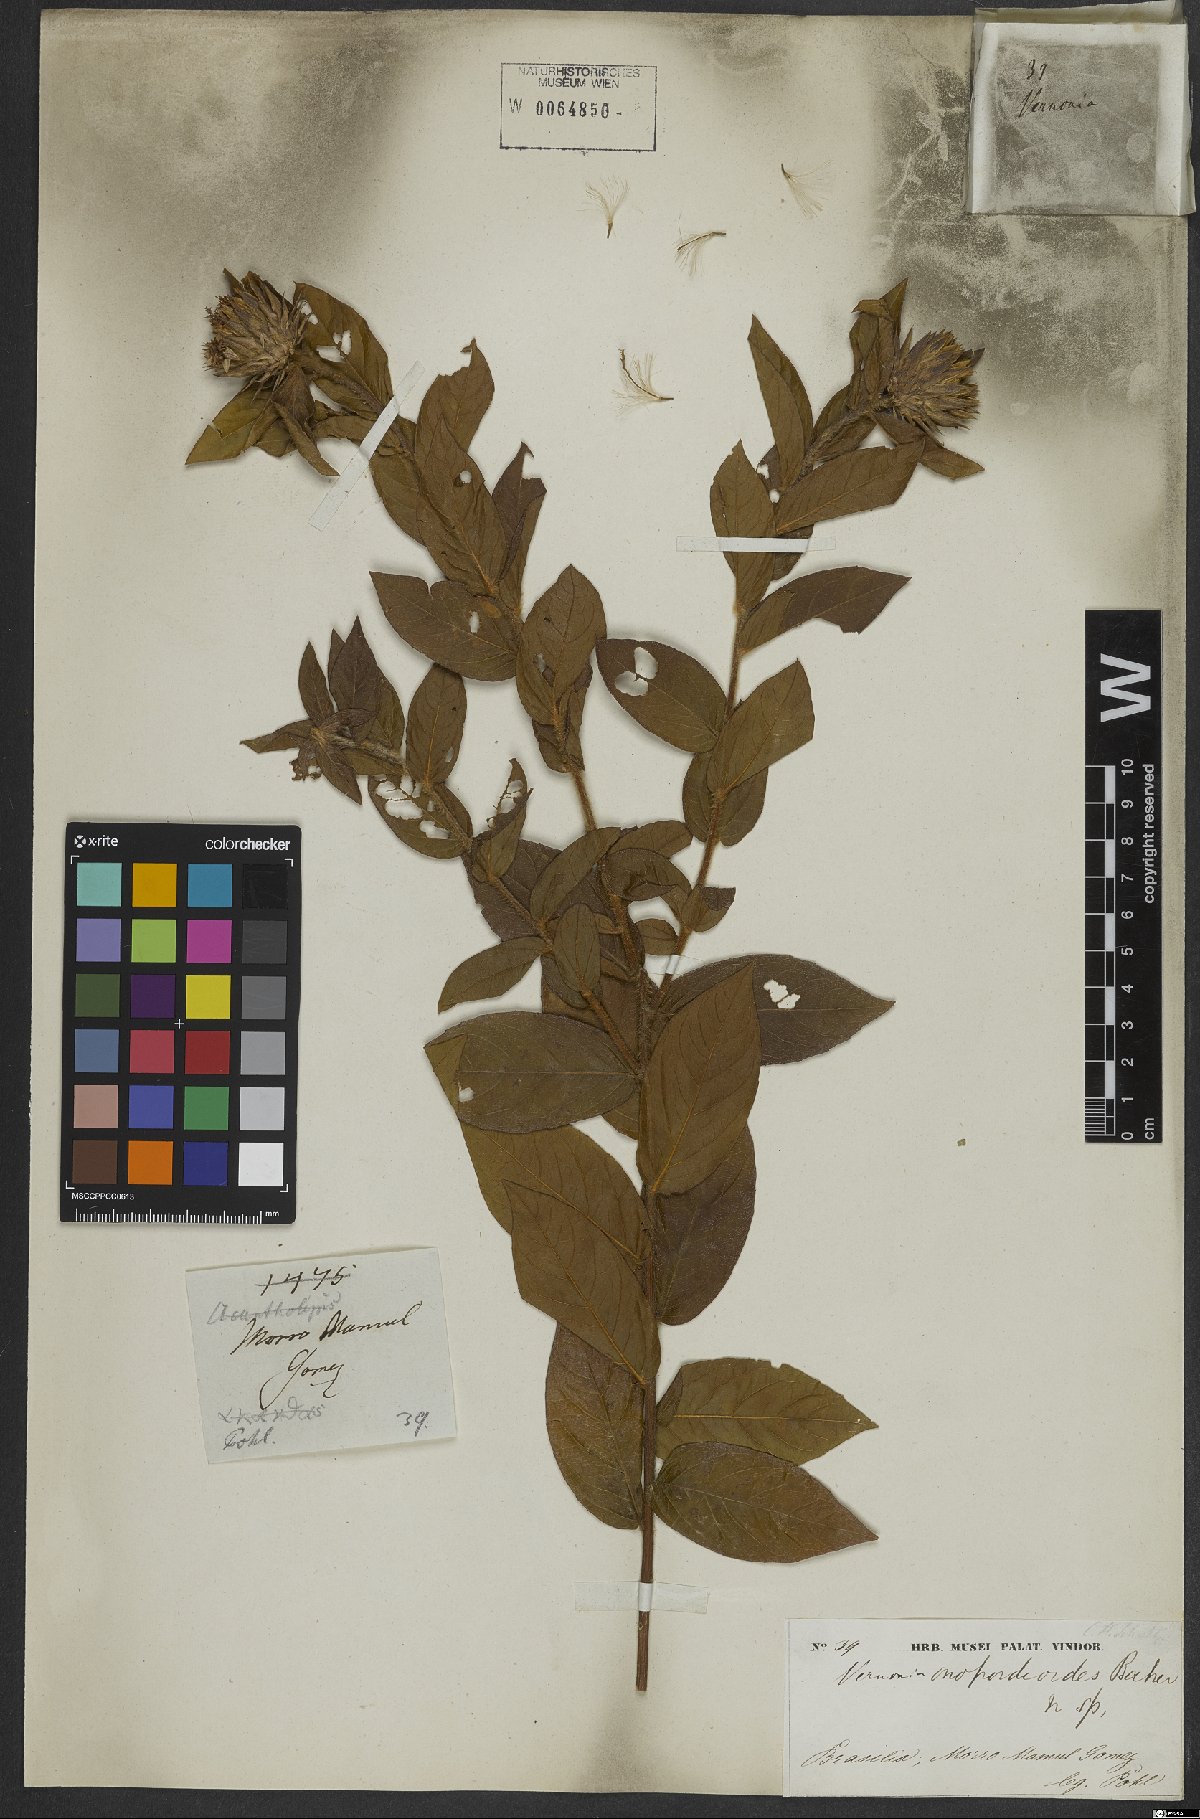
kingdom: Plantae
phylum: Tracheophyta
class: Magnoliopsida
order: Asterales
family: Asteraceae
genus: Lessingianthus
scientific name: Lessingianthus onopordioides
